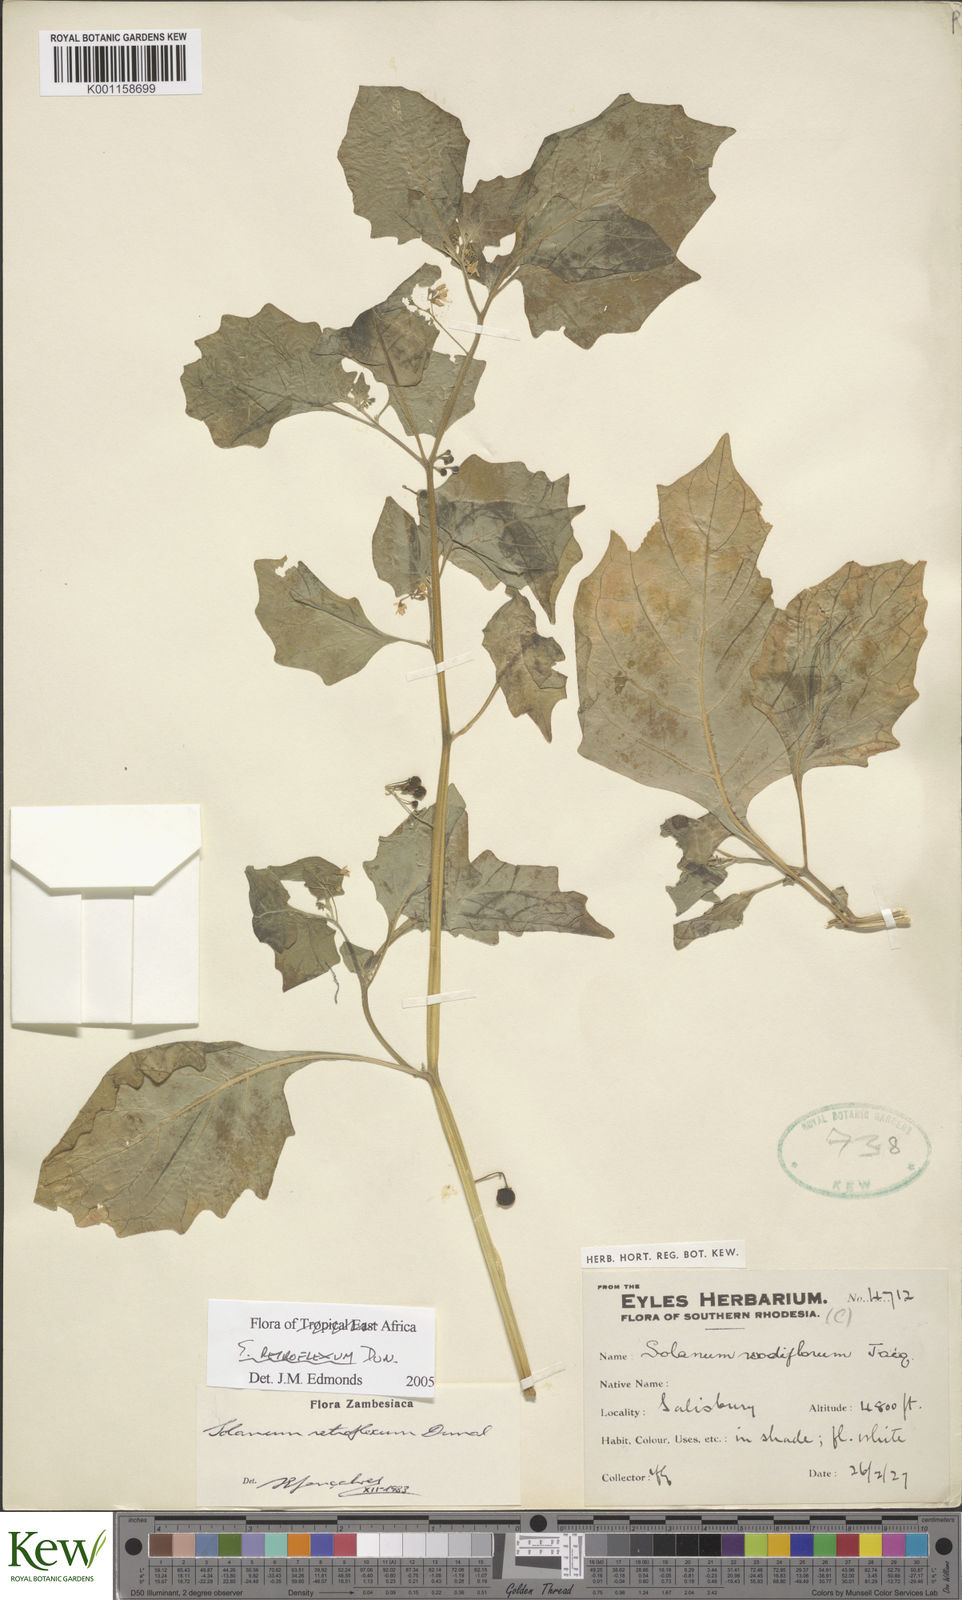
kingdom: Plantae
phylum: Tracheophyta
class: Magnoliopsida
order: Solanales
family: Solanaceae
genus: Solanum
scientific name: Solanum retroflexum
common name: Wonderberry
